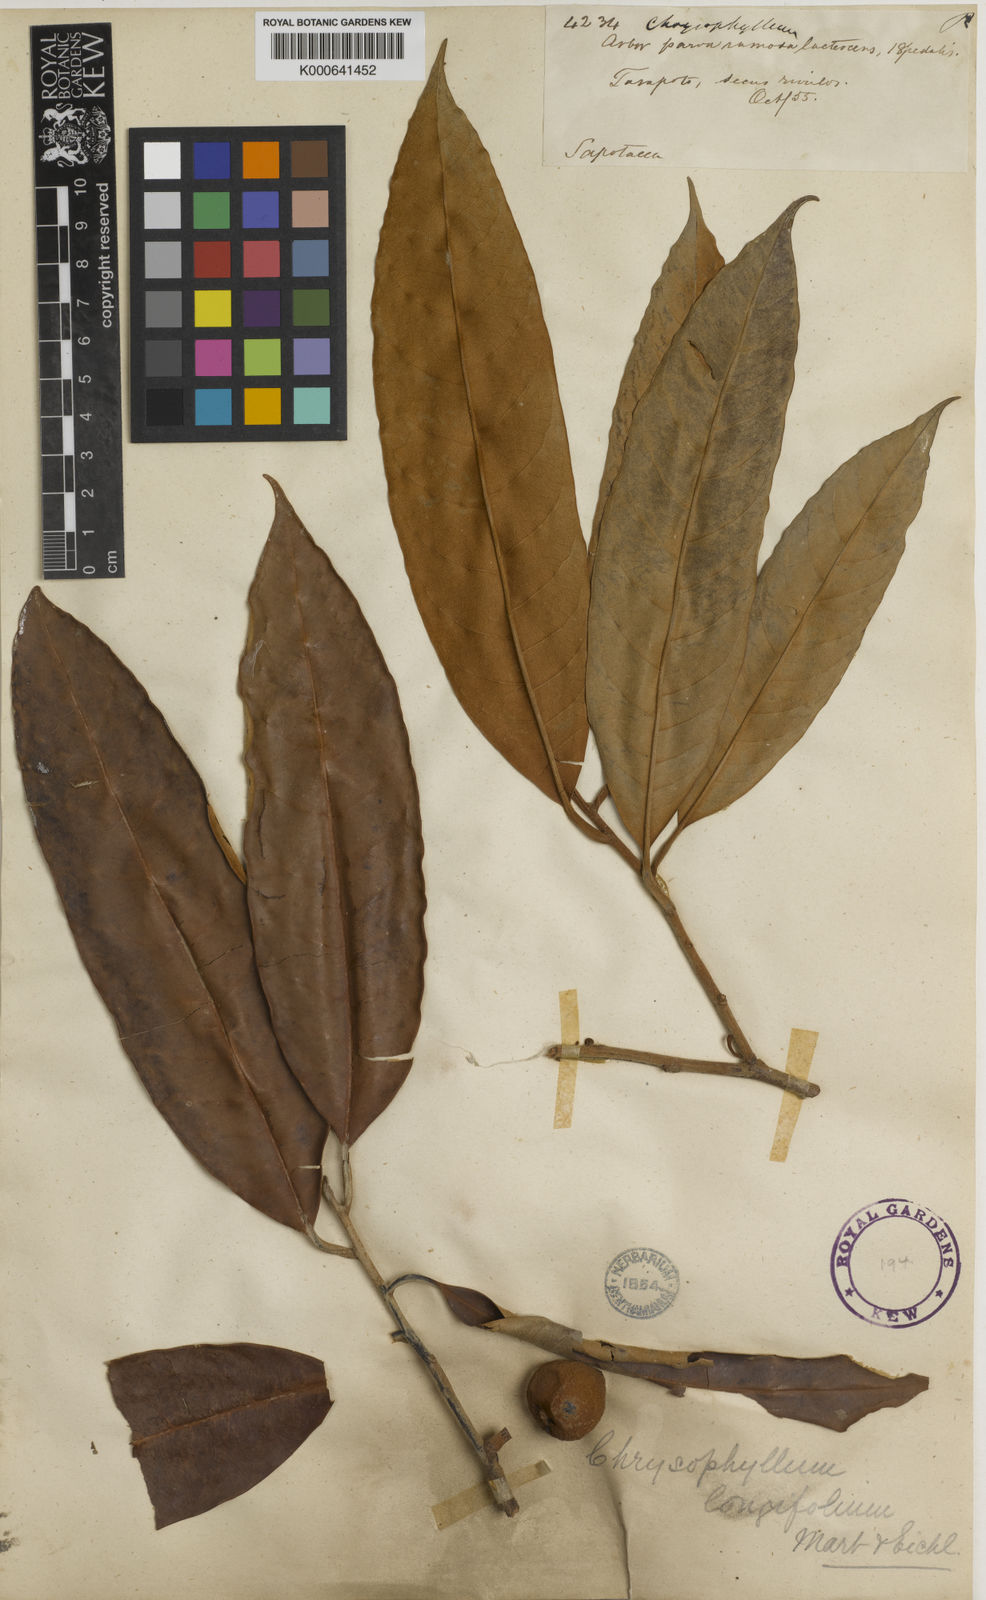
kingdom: Plantae
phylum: Tracheophyta
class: Magnoliopsida
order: Ericales
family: Sapotaceae
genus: Pouteria
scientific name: Pouteria longifolia
